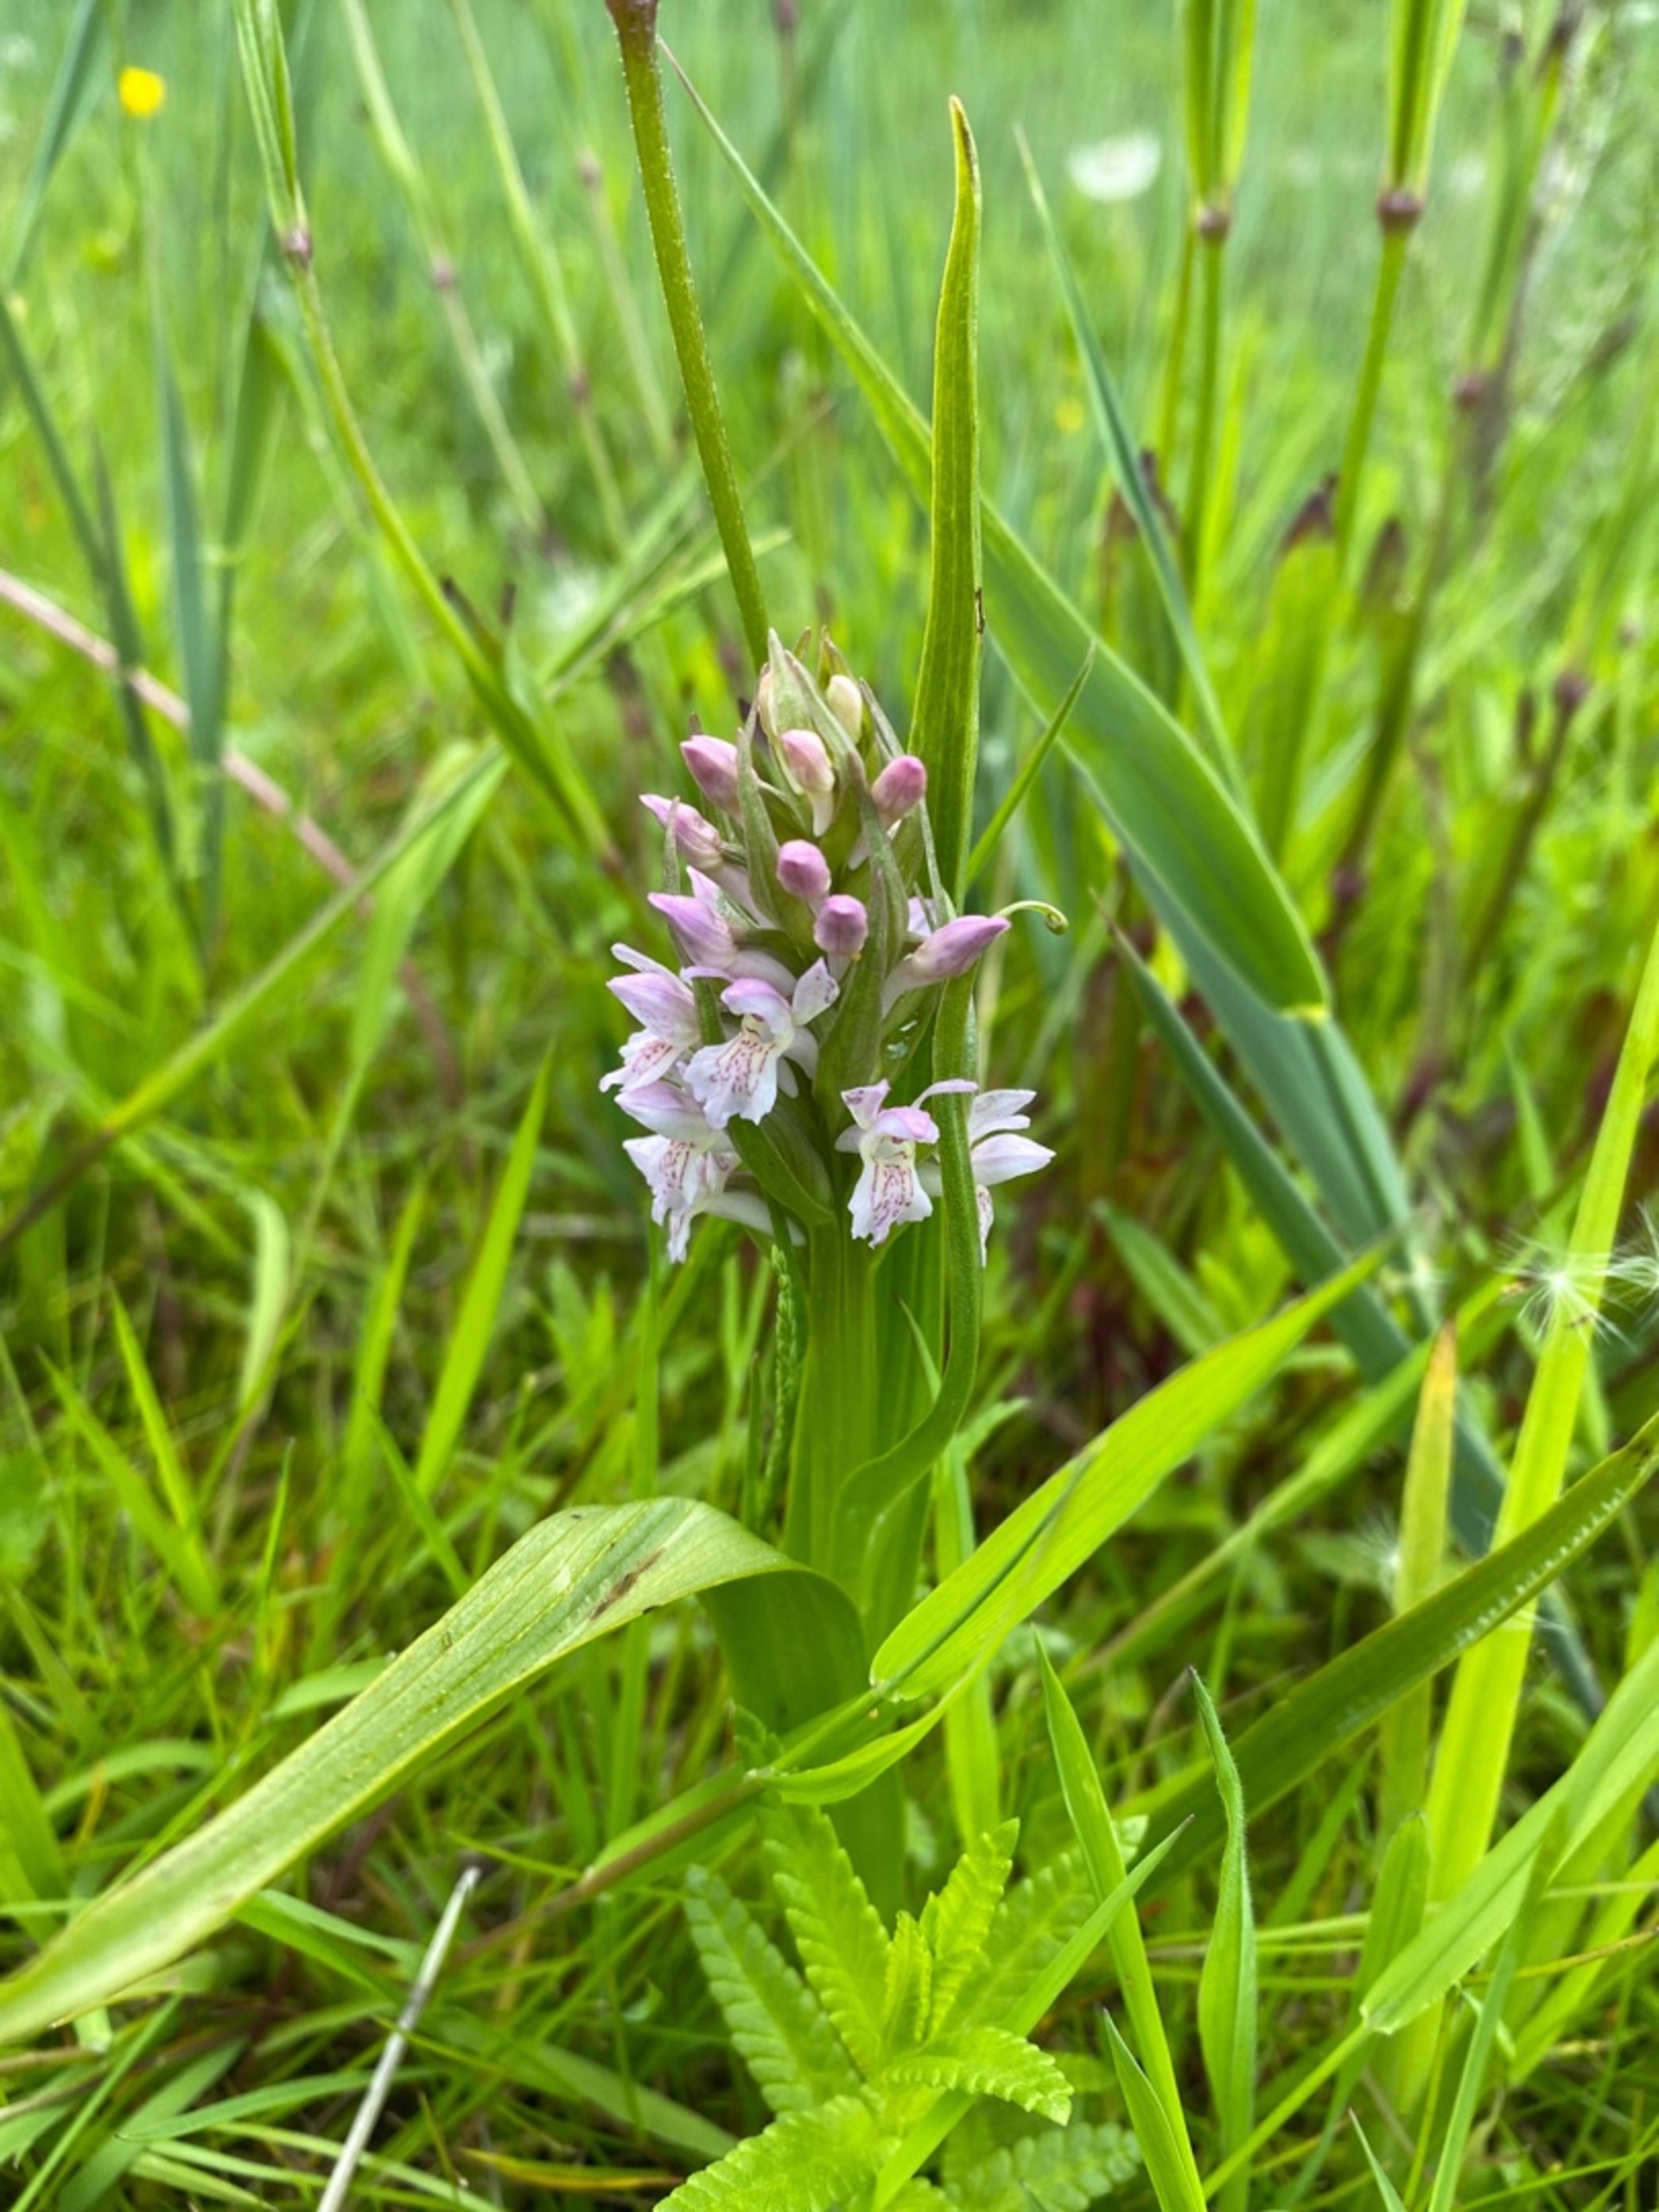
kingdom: Plantae
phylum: Tracheophyta
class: Liliopsida
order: Asparagales
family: Orchidaceae
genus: Dactylorhiza
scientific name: Dactylorhiza incarnata
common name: Kødfarvet gøgeurt
